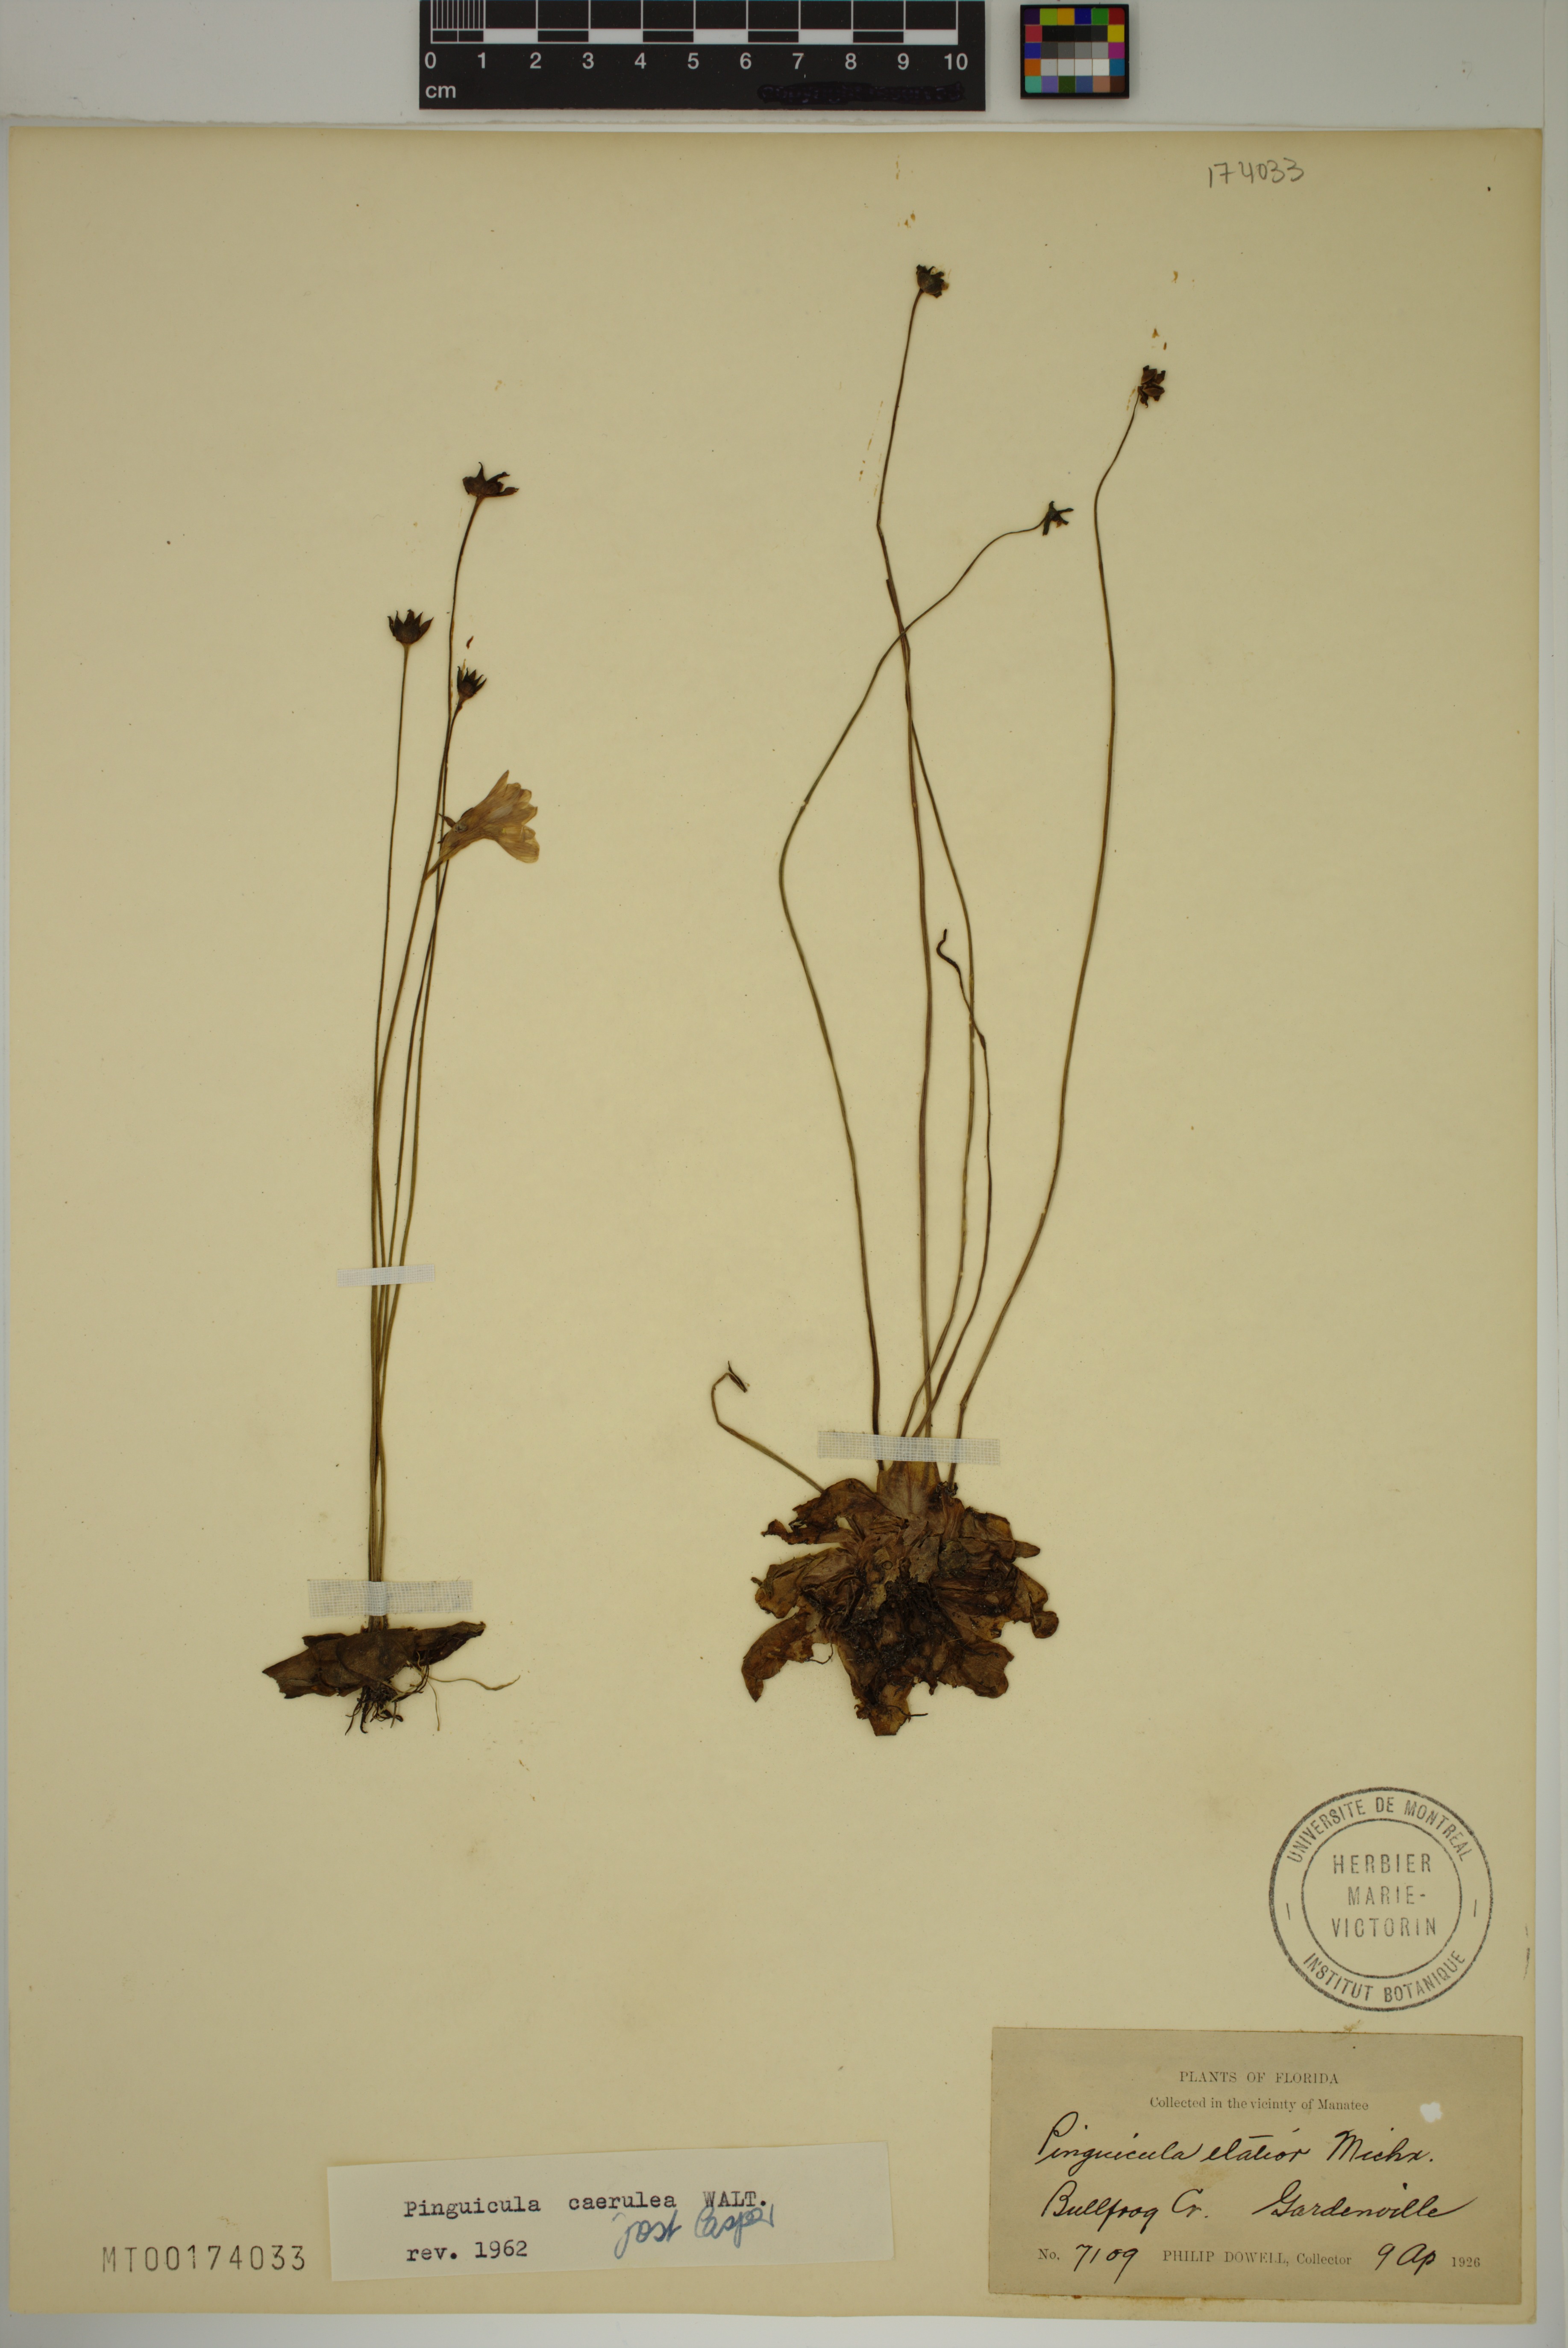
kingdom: Plantae
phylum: Tracheophyta
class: Magnoliopsida
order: Lamiales
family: Lentibulariaceae
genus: Pinguicula
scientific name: Pinguicula caerulea
